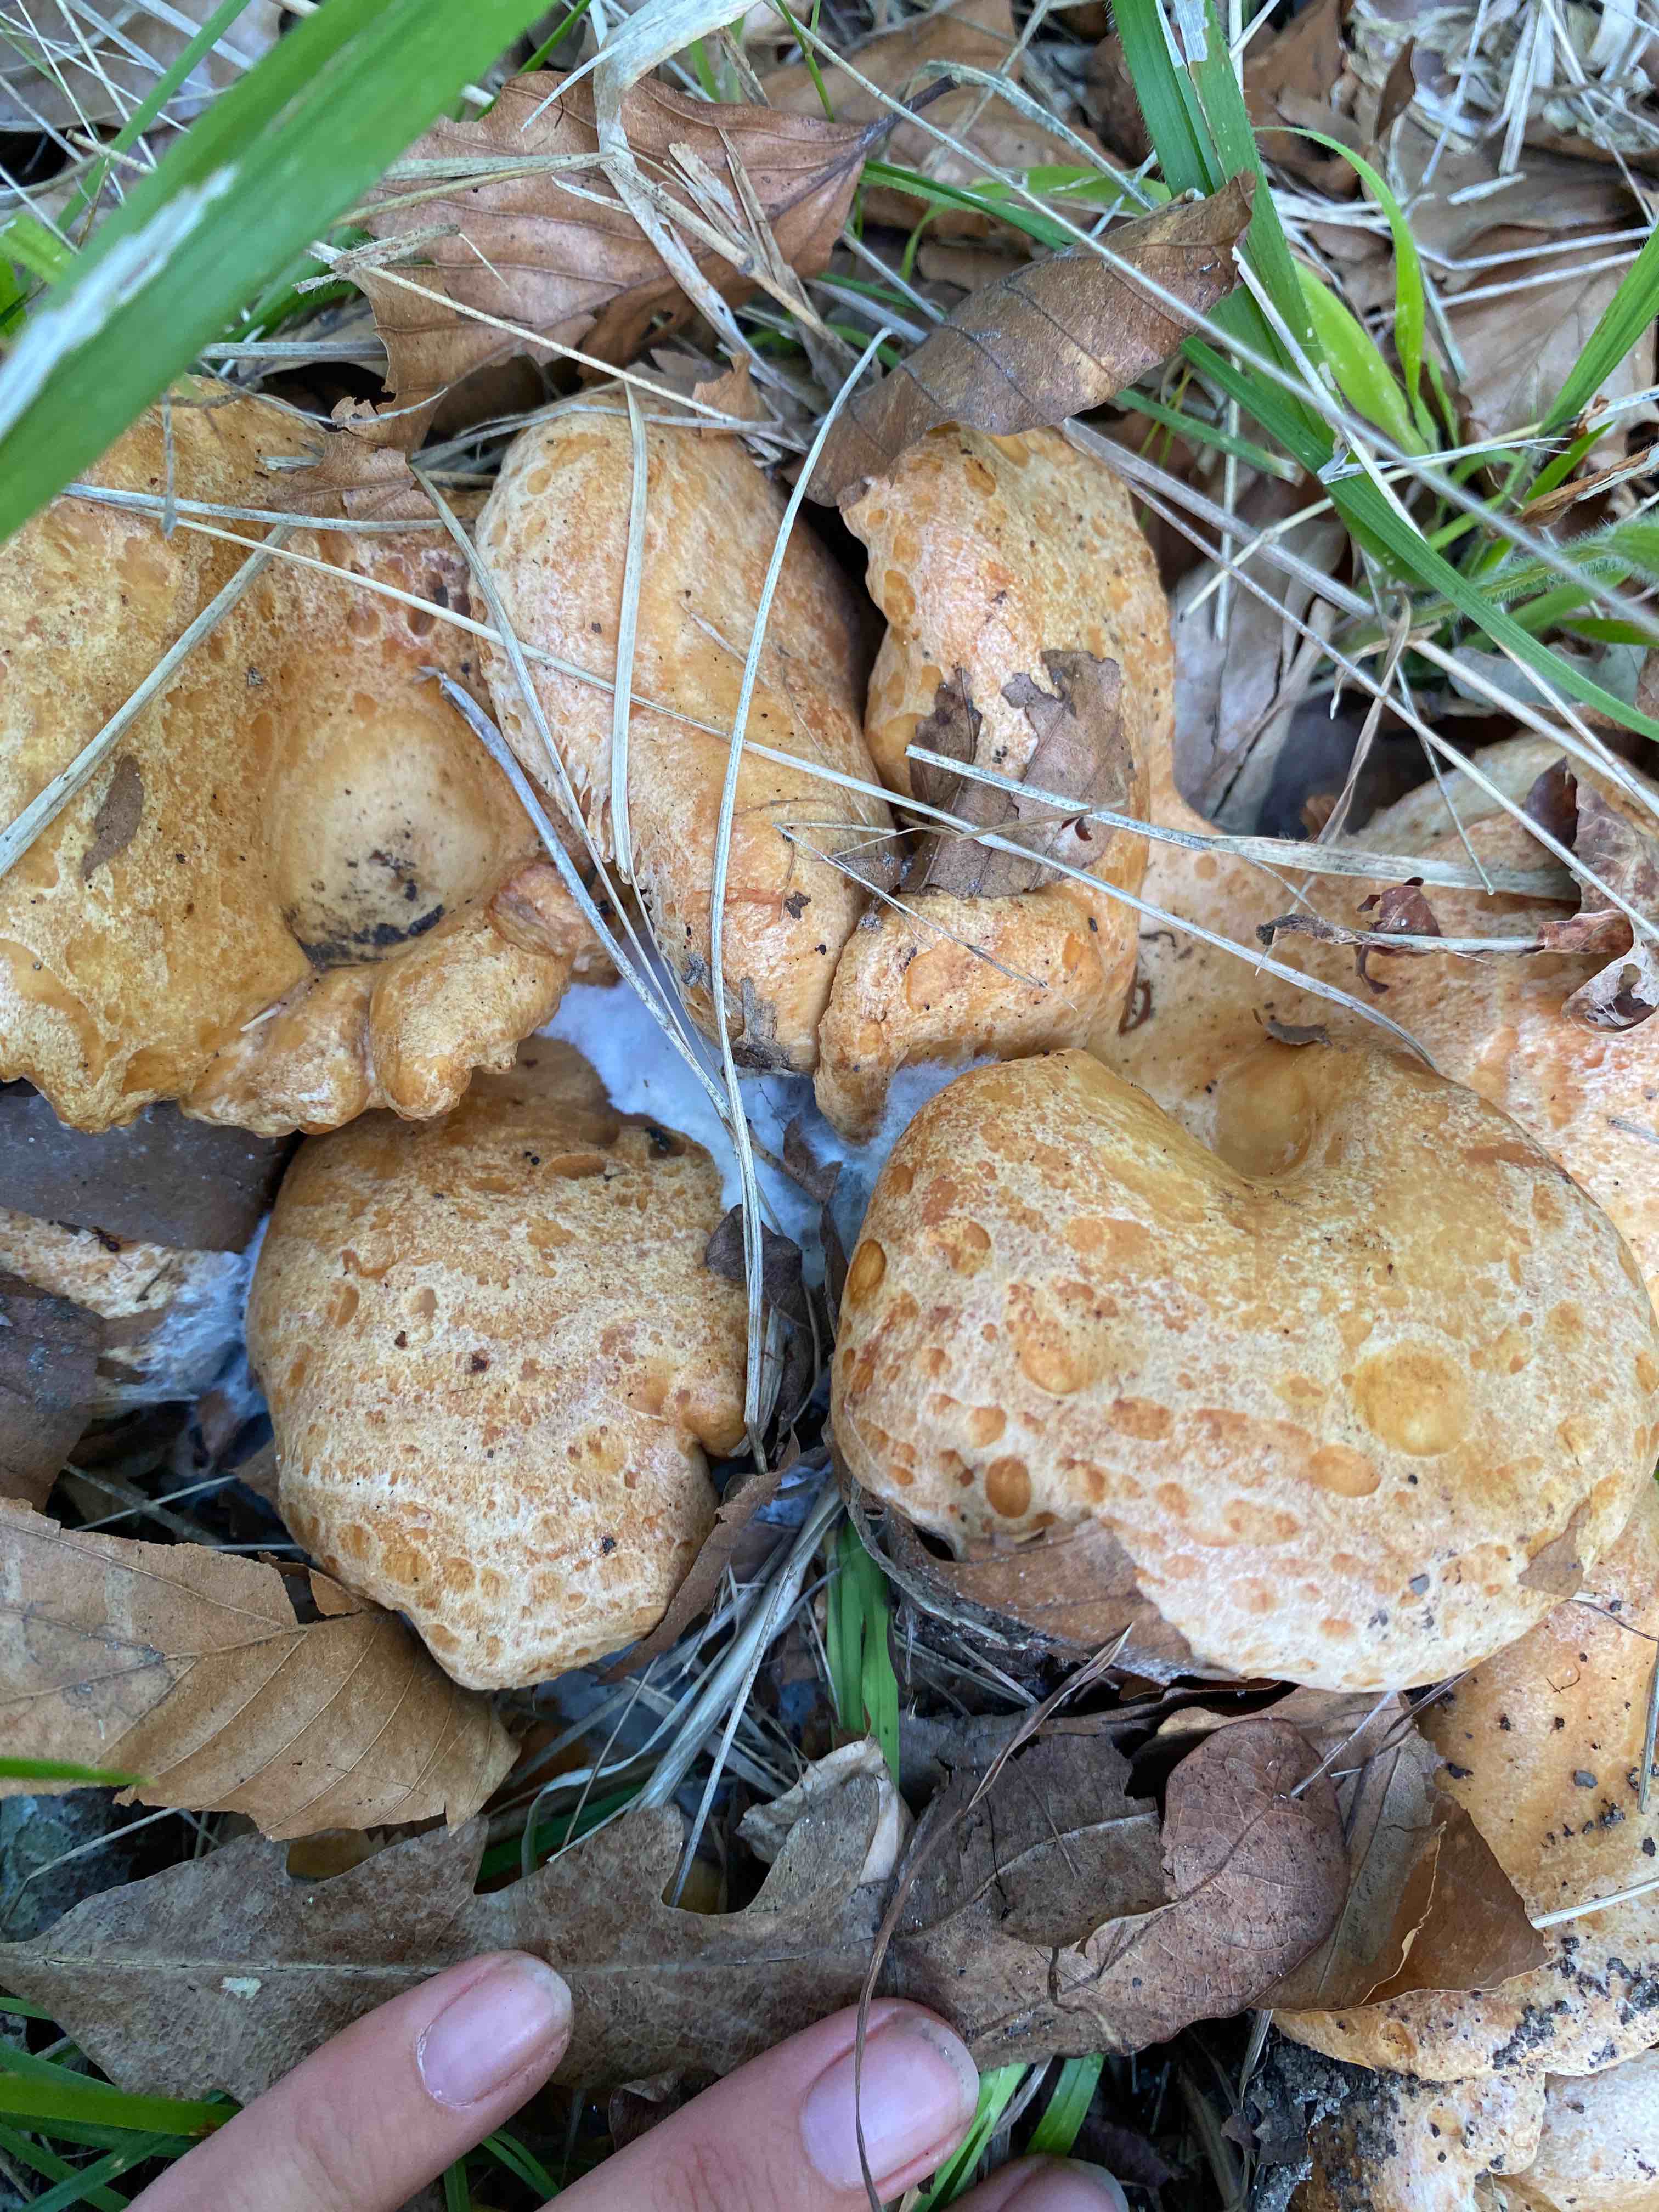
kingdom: Fungi
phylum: Basidiomycota
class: Agaricomycetes
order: Russulales
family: Russulaceae
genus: Lactarius
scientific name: Lactarius
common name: mælkehat
